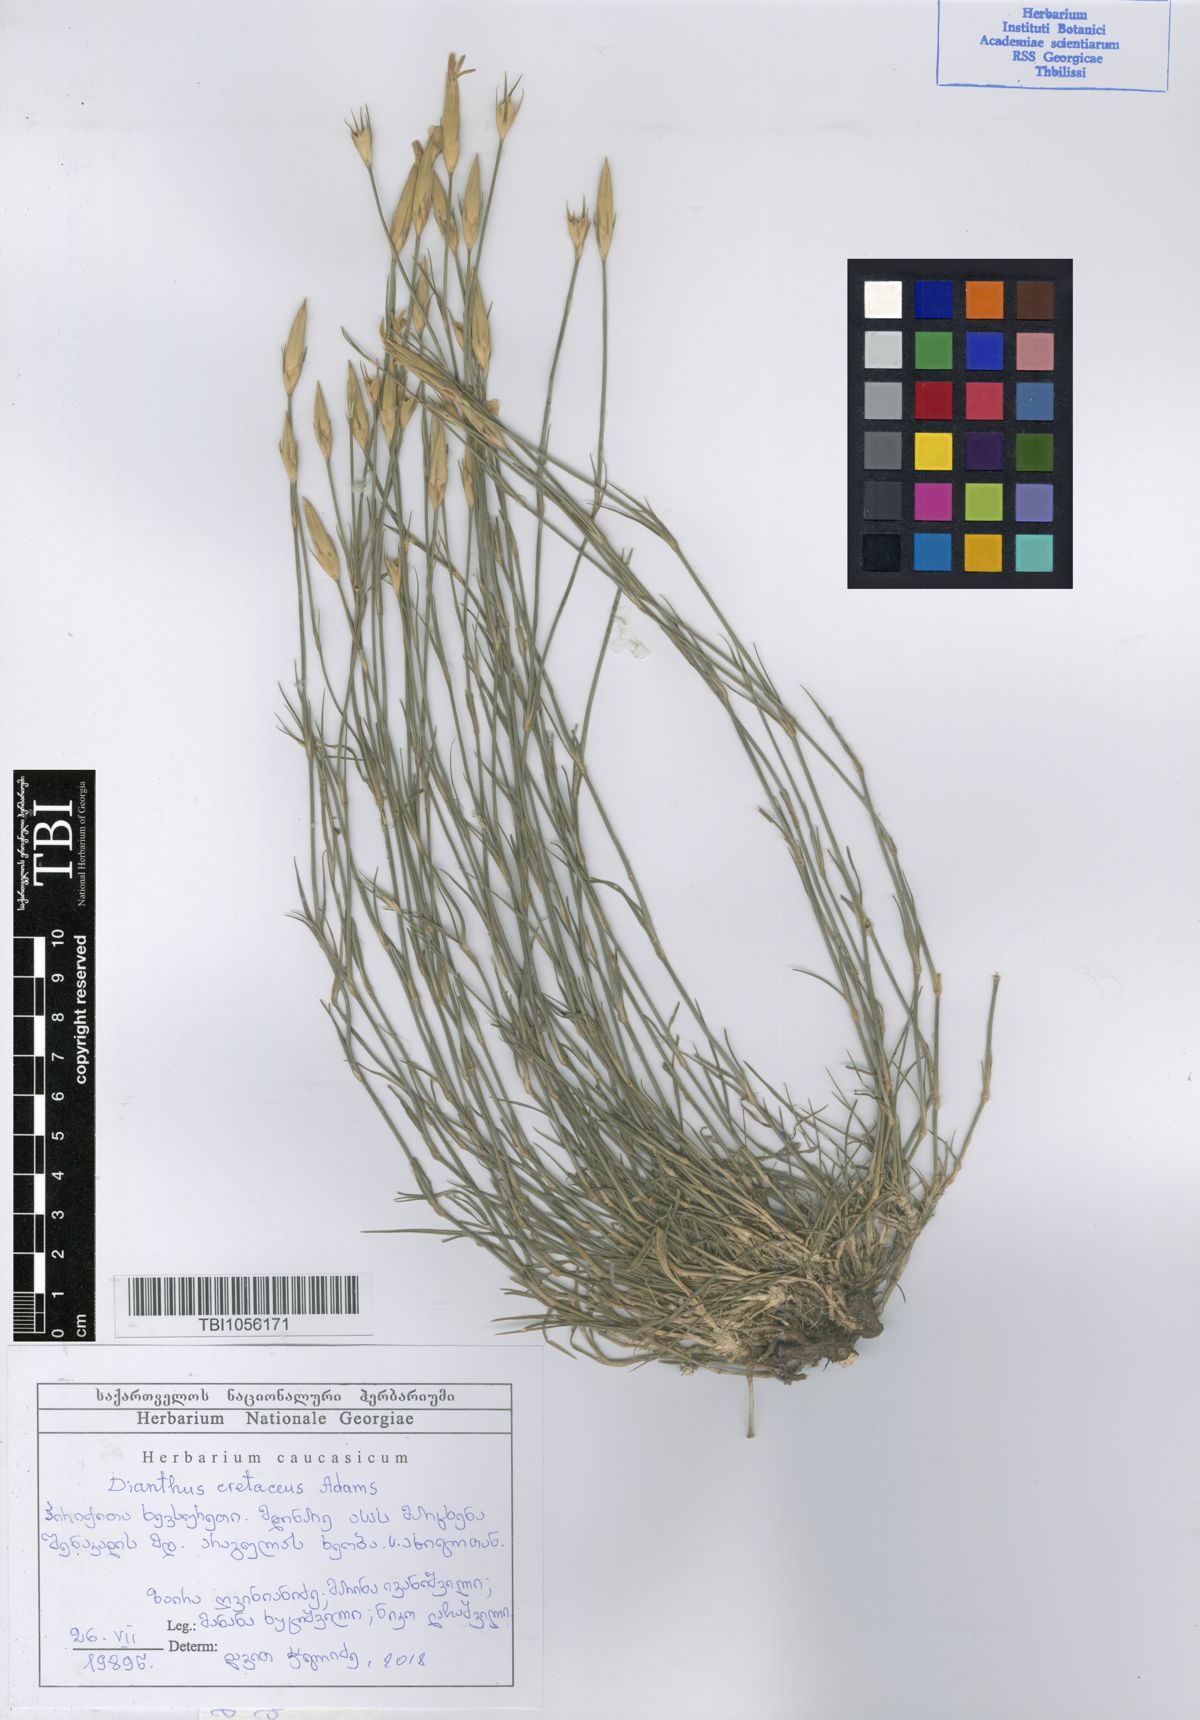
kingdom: Plantae
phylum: Tracheophyta
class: Magnoliopsida
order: Caryophyllales
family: Caryophyllaceae
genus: Dianthus
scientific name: Dianthus cretaceus
